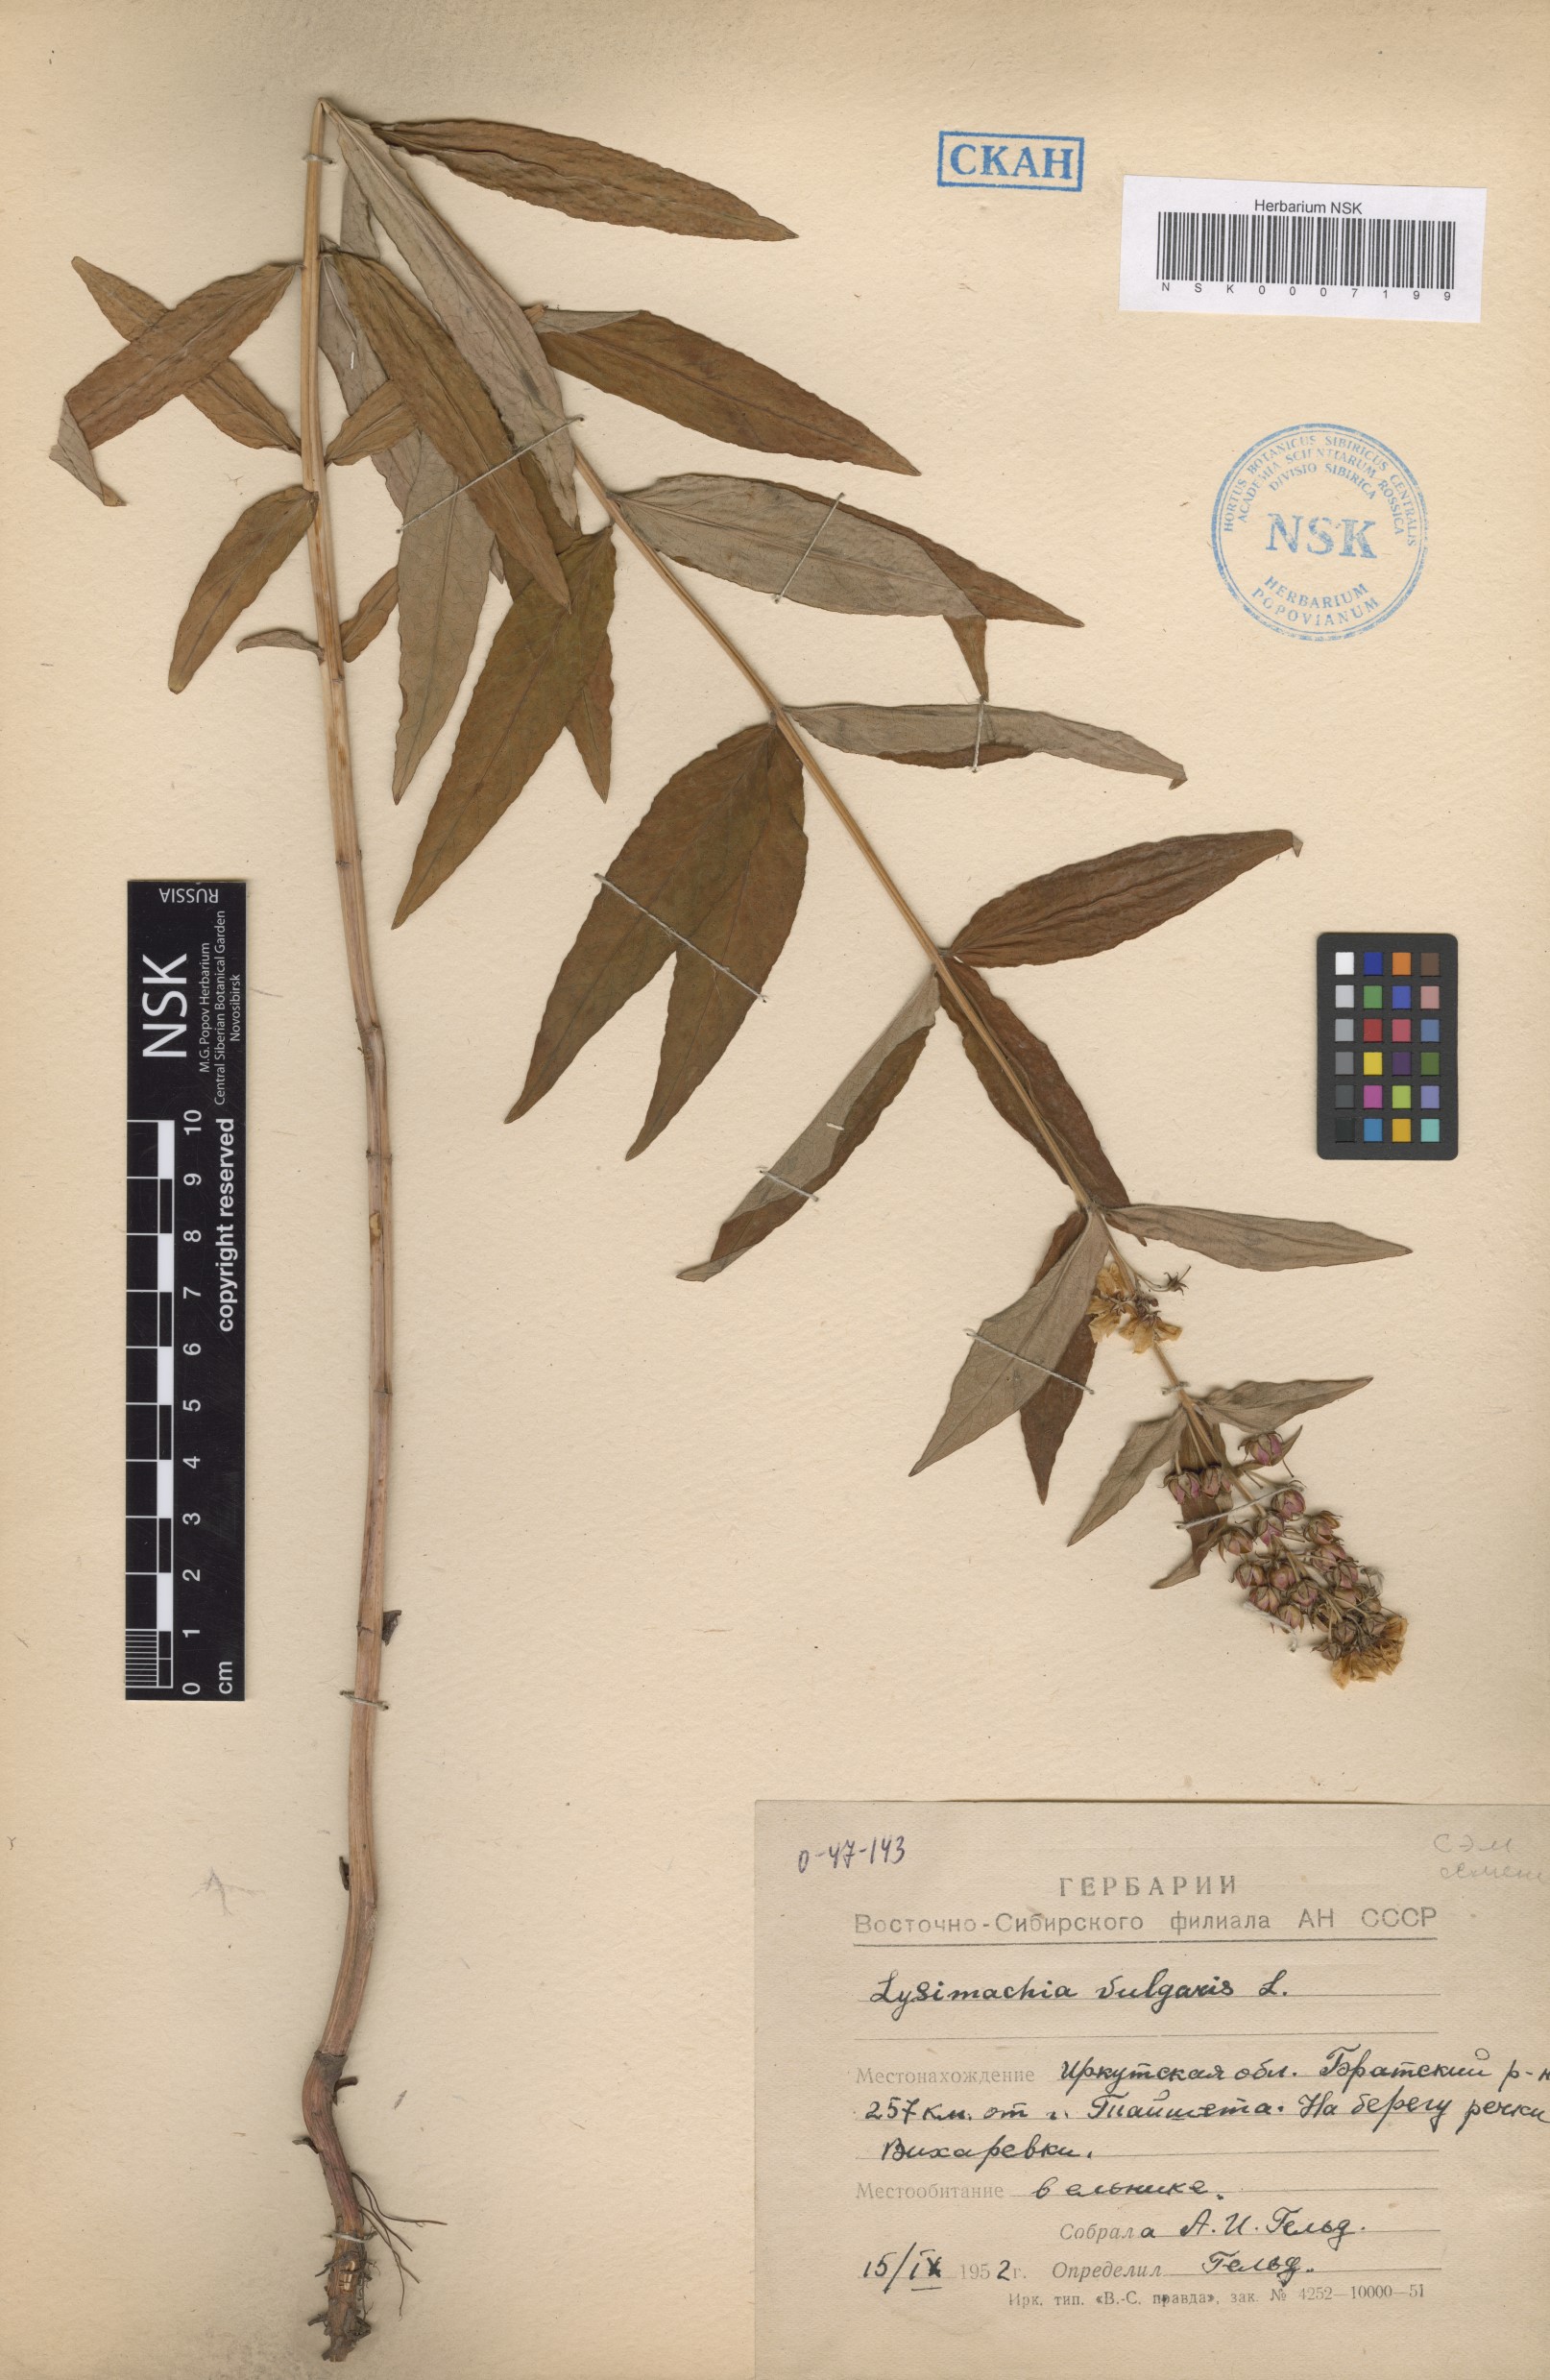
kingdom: Plantae
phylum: Tracheophyta
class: Magnoliopsida
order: Ericales
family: Primulaceae
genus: Lysimachia
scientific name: Lysimachia vulgaris
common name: Yellow loosestrife
